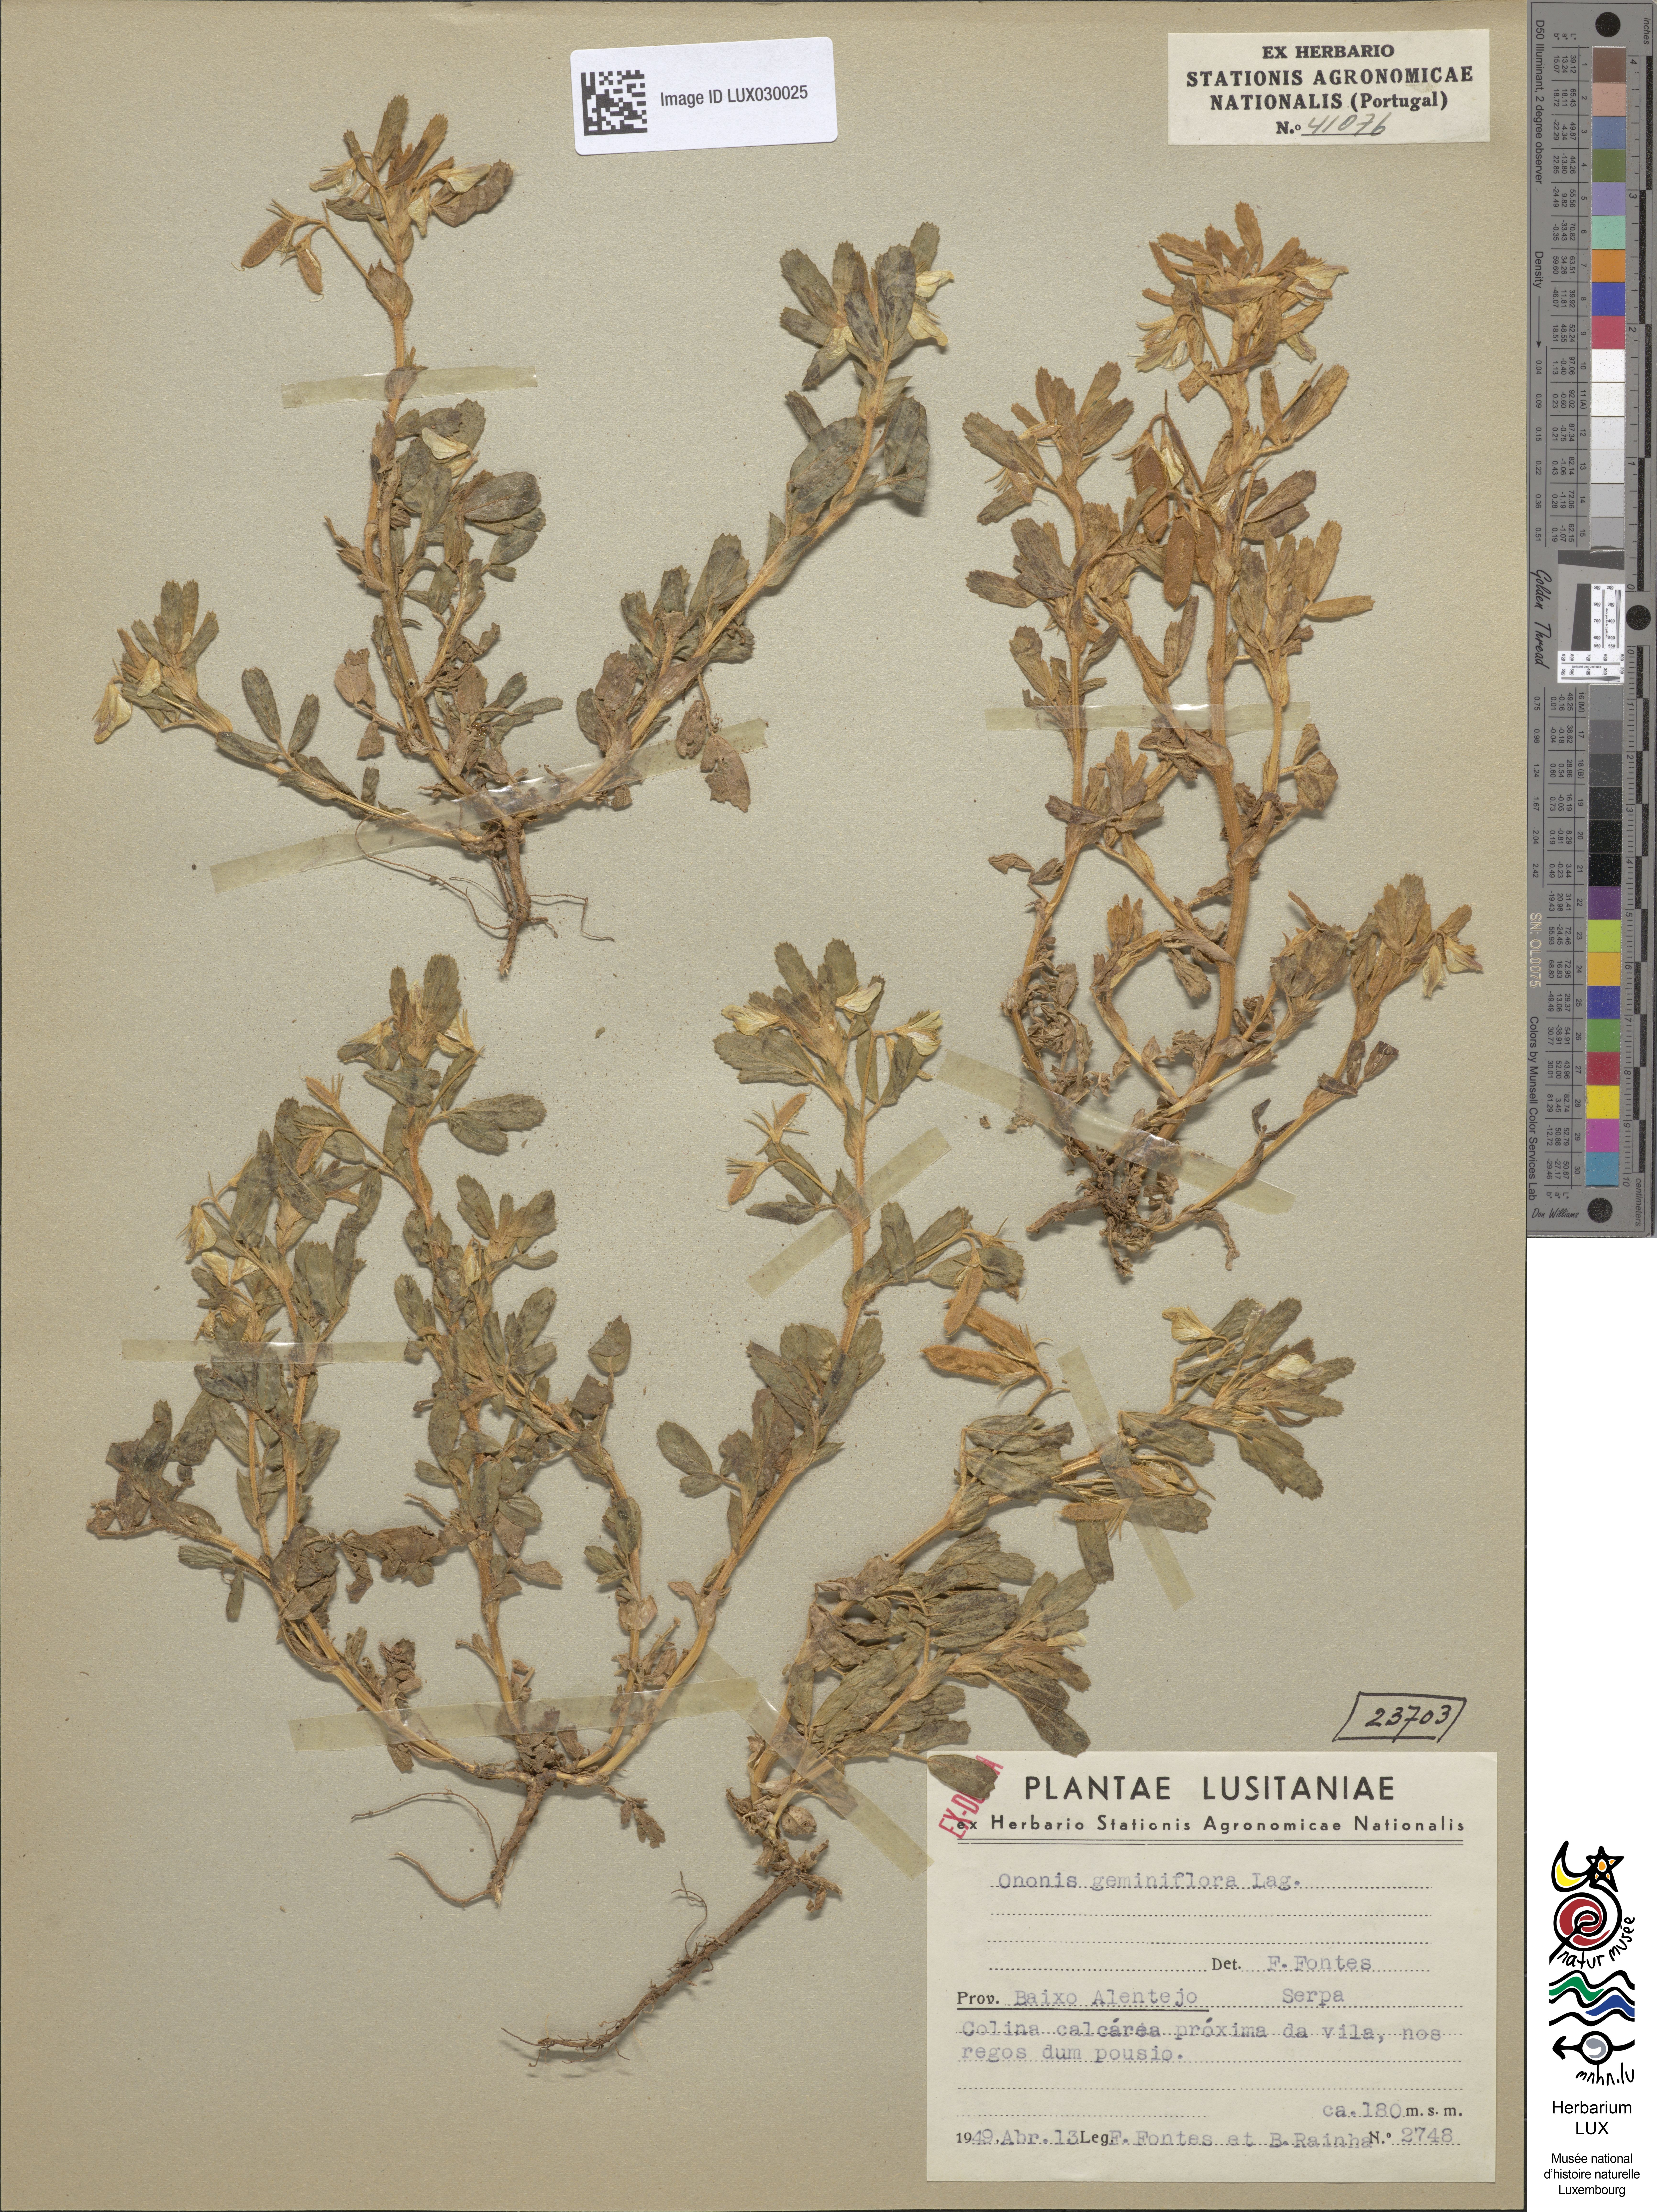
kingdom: Plantae
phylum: Tracheophyta
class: Magnoliopsida
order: Fabales
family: Fabaceae
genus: Ononis
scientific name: Ononis biflora
